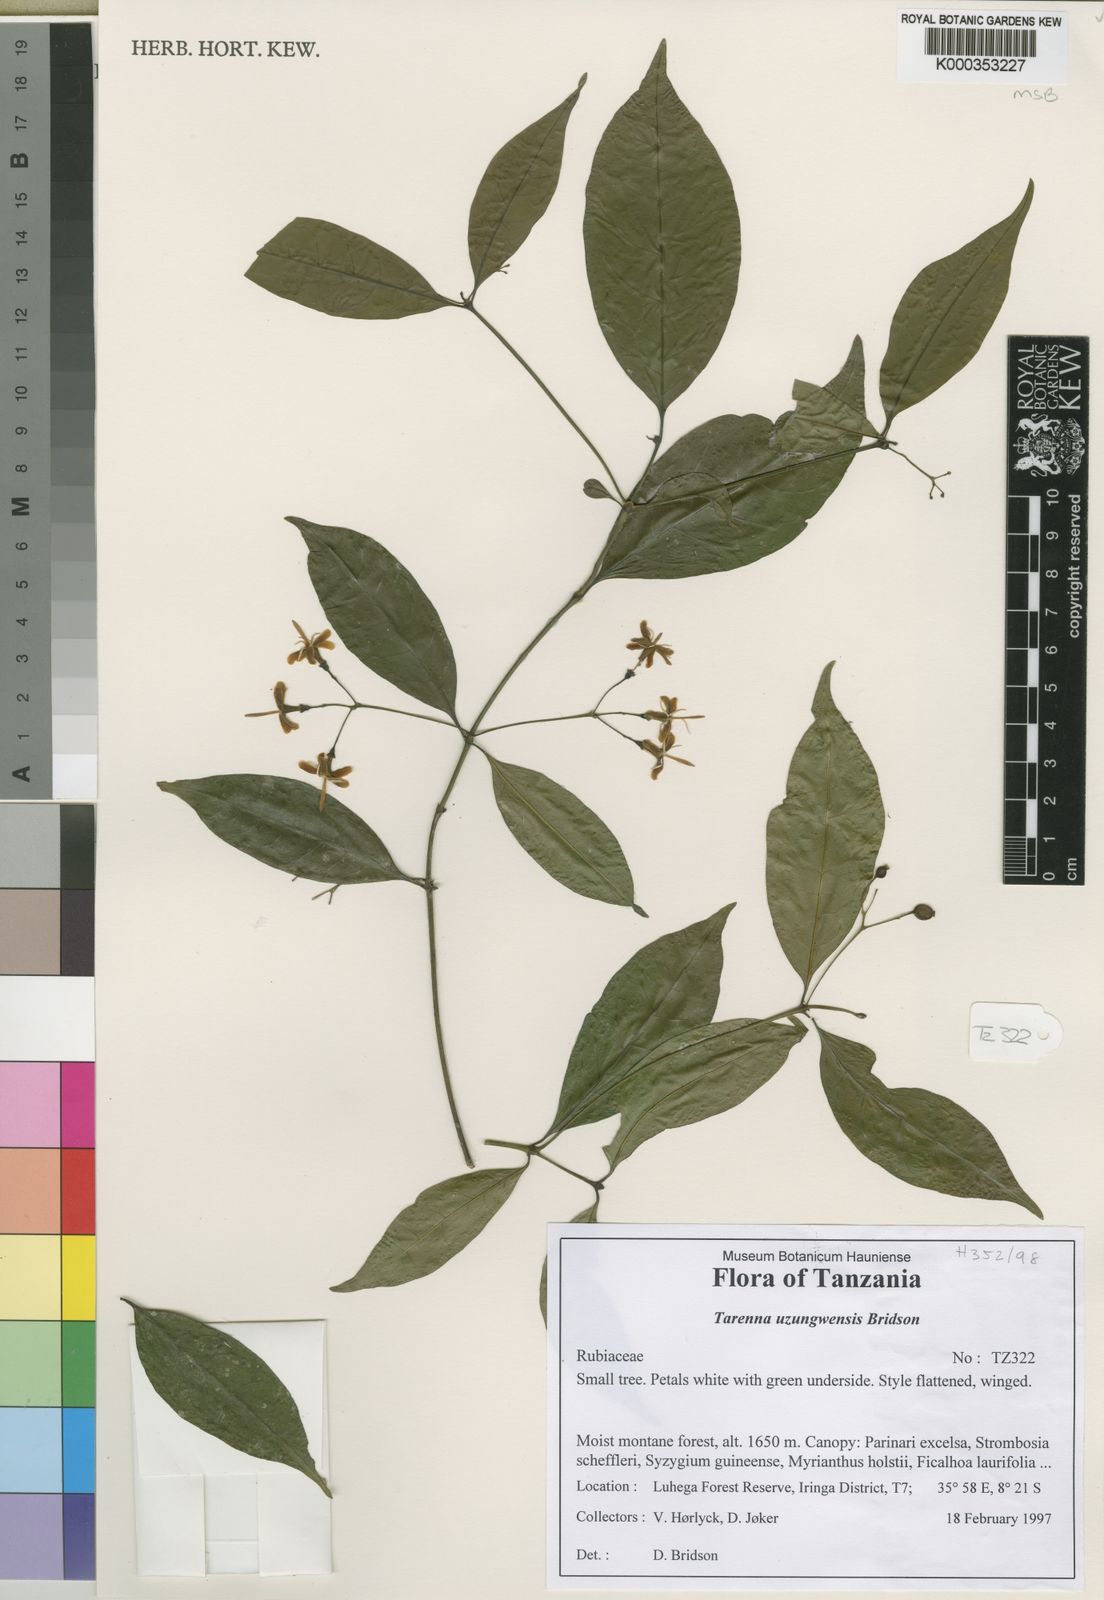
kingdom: Plantae
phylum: Tracheophyta
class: Magnoliopsida
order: Gentianales
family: Rubiaceae
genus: Tarenna
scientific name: Tarenna uzungwaensis
